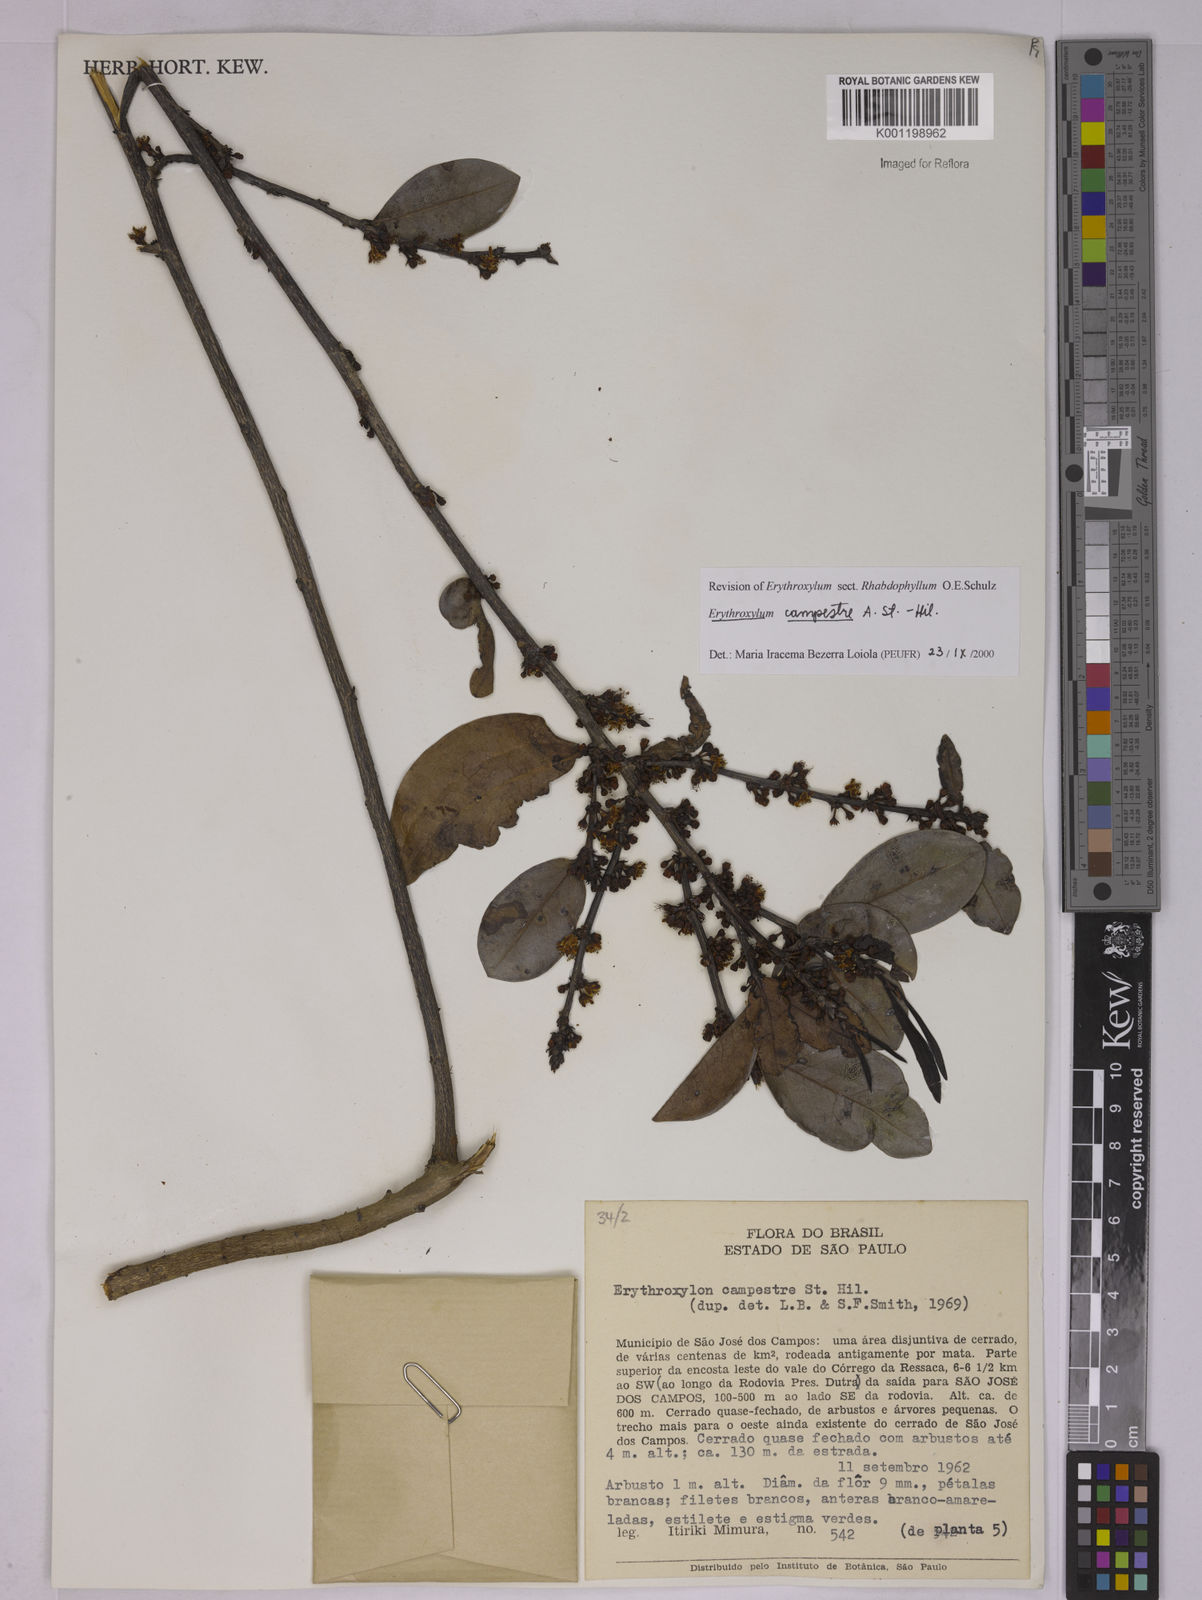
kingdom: Plantae
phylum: Tracheophyta
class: Magnoliopsida
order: Malpighiales
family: Erythroxylaceae
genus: Erythroxylum
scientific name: Erythroxylum campestre
